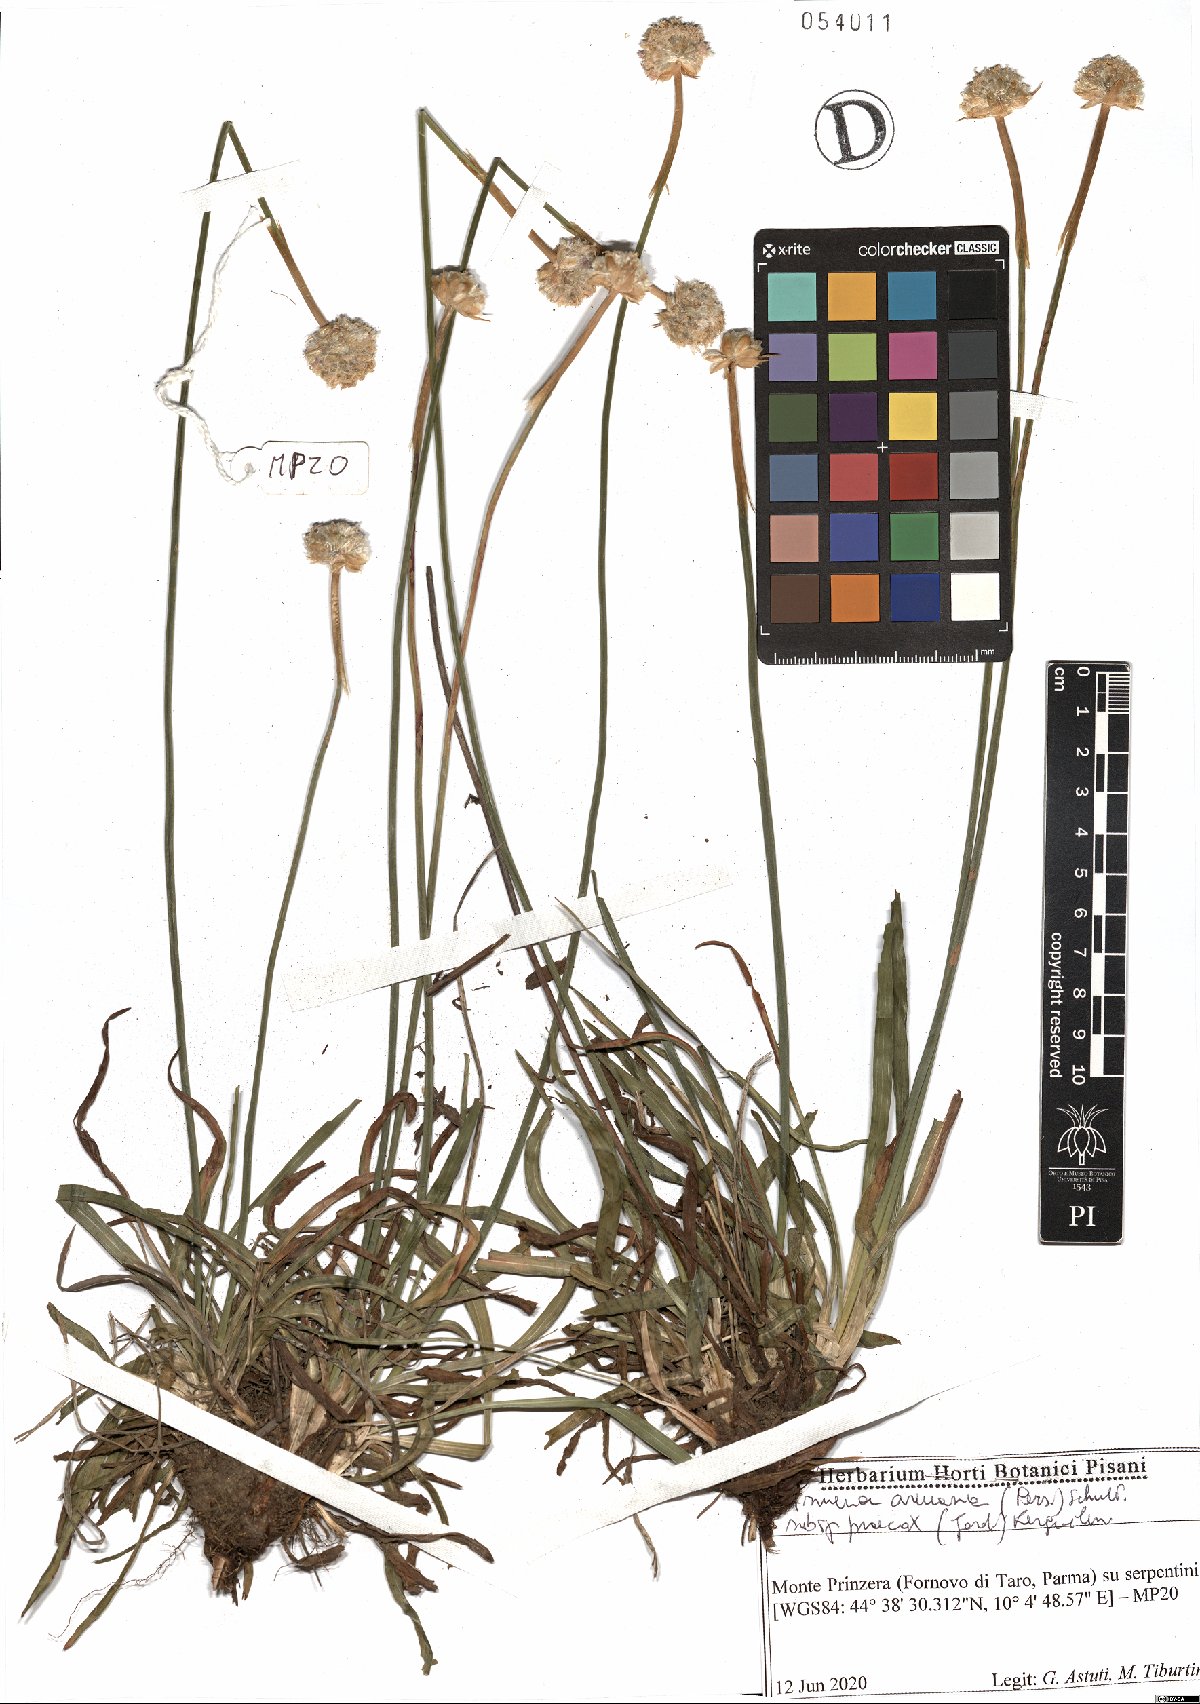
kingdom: Plantae
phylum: Tracheophyta
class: Magnoliopsida
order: Caryophyllales
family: Plumbaginaceae
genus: Armeria
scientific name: Armeria arenaria
